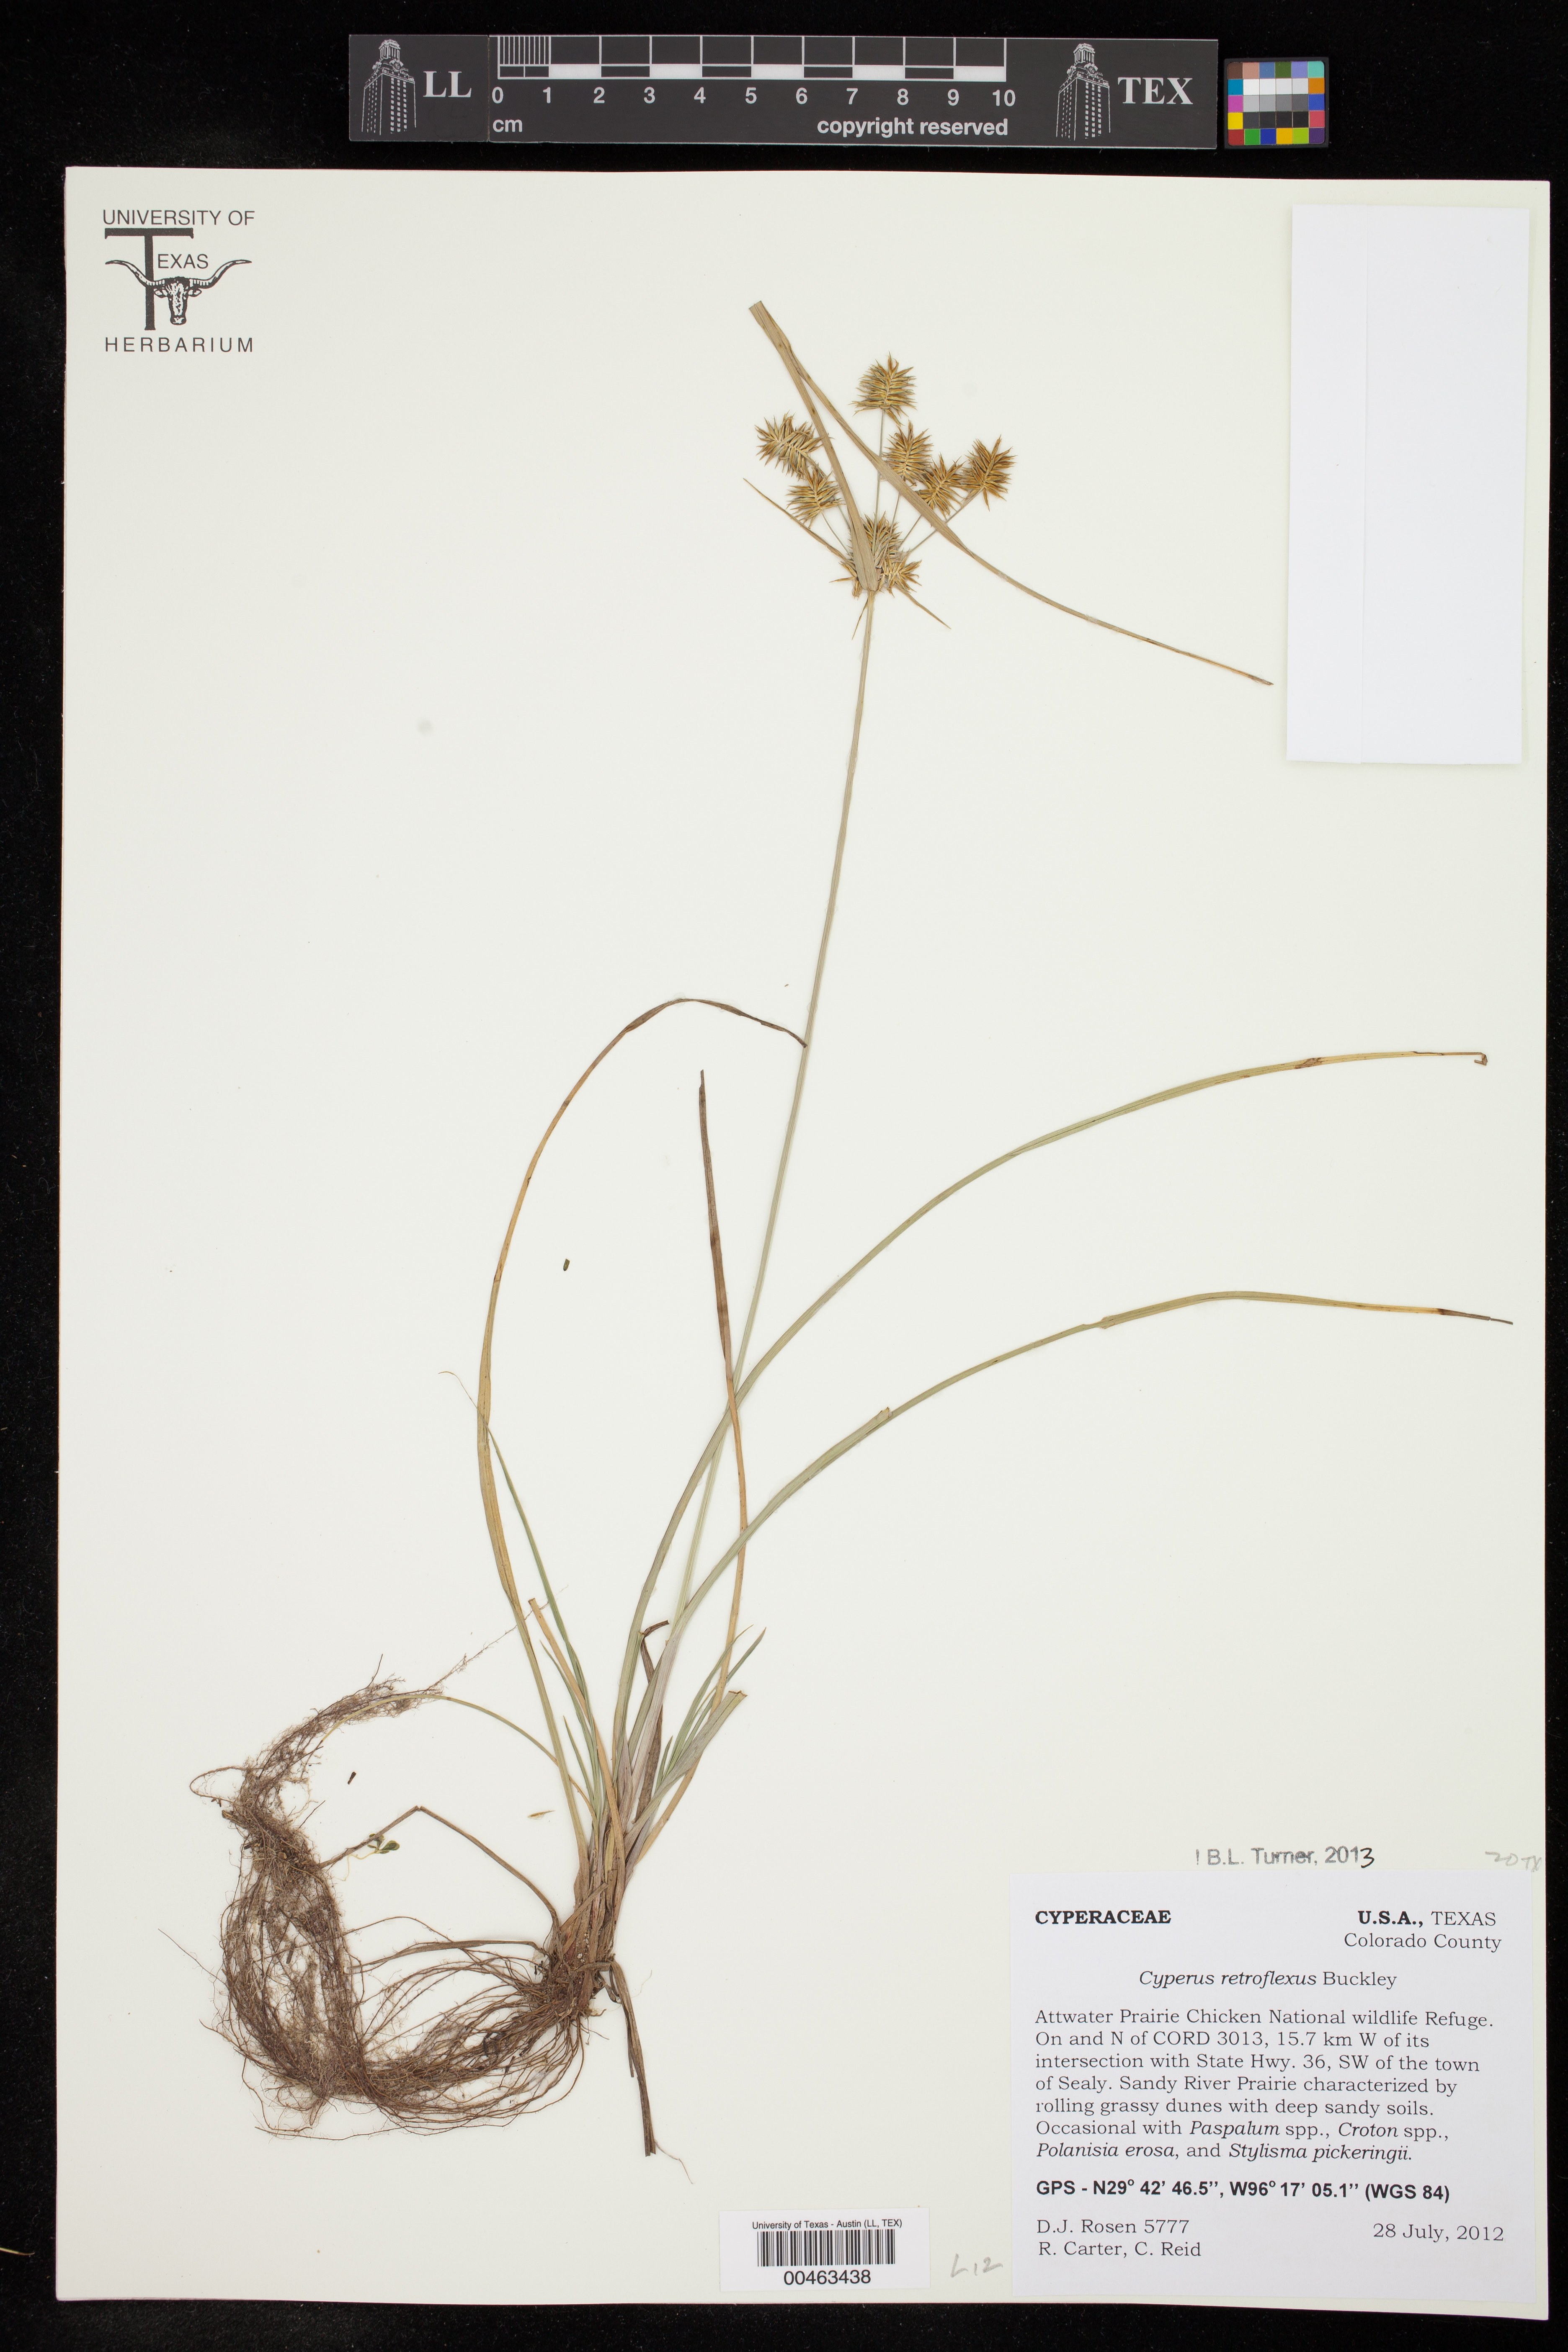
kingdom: Plantae
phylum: Tracheophyta
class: Liliopsida
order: Poales
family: Cyperaceae
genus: Cyperus
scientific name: Cyperus retroflexus
